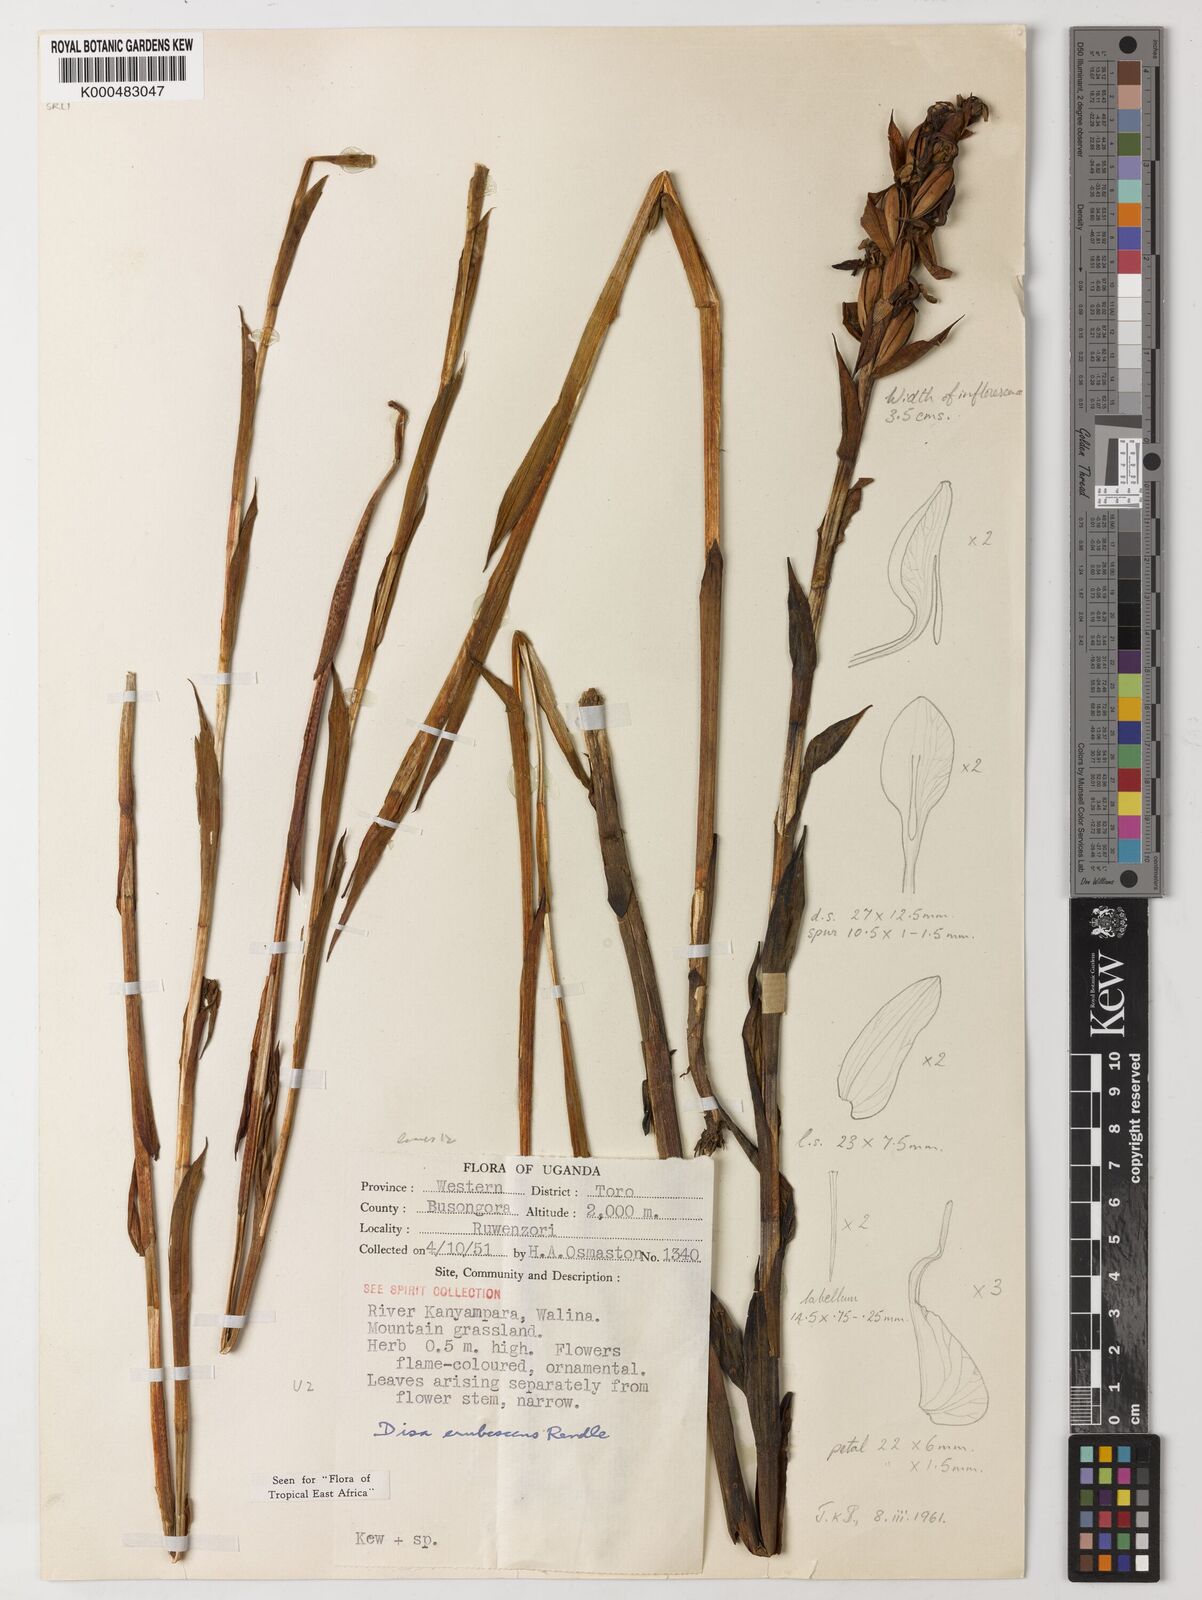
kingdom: Plantae
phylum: Tracheophyta
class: Liliopsida
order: Asparagales
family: Orchidaceae
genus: Disa
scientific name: Disa erubescens
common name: The rose disa
